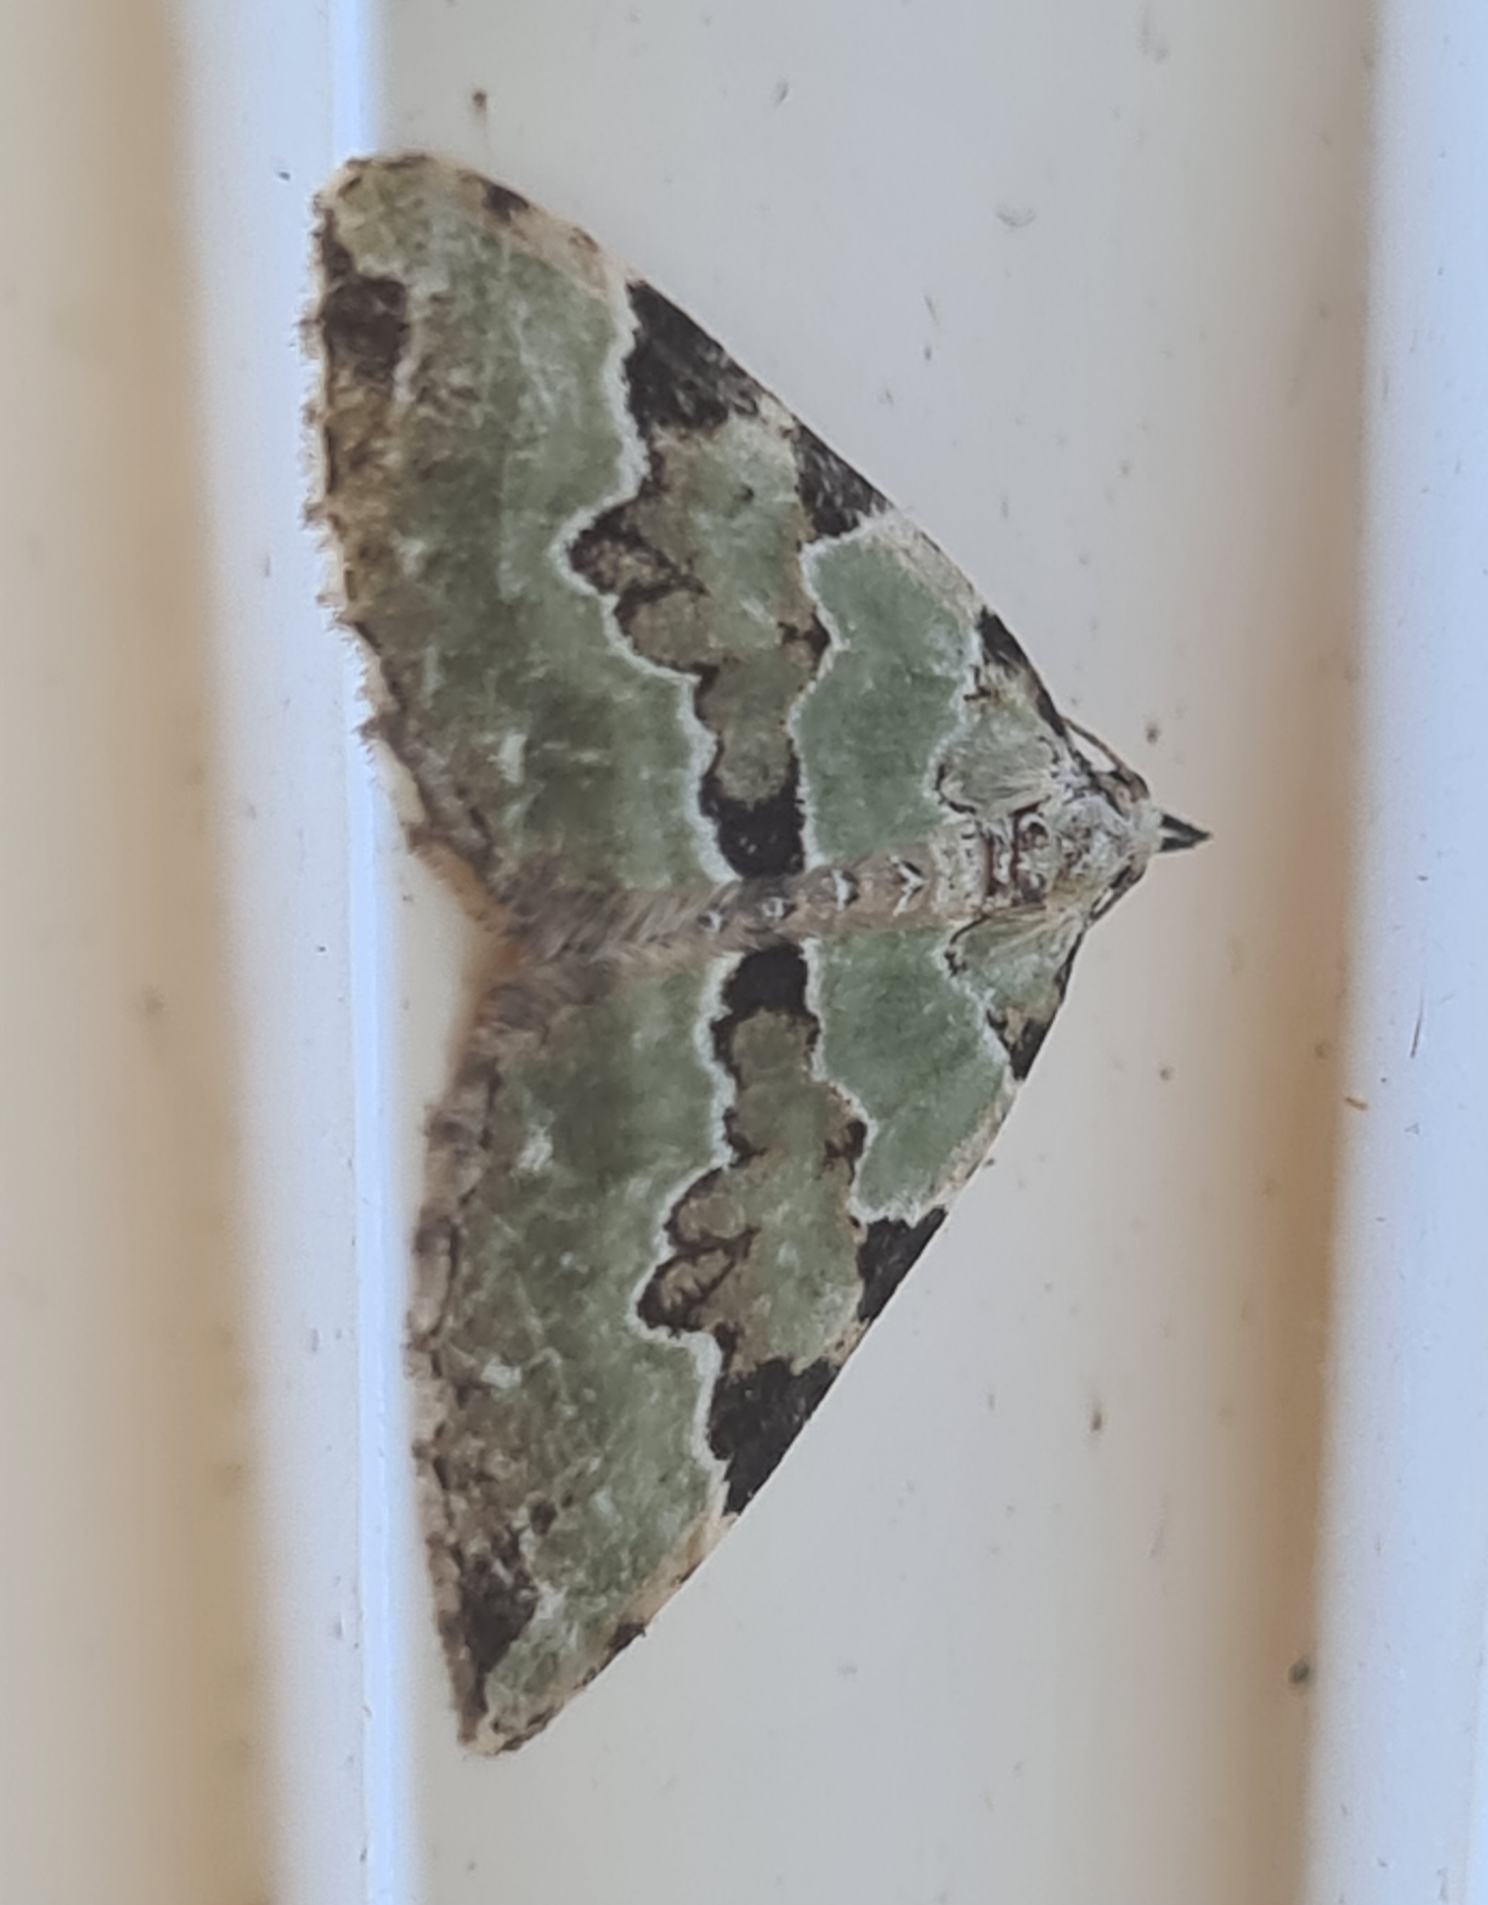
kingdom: Animalia
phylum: Arthropoda
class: Insecta
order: Lepidoptera
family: Geometridae
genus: Colostygia
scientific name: Colostygia pectinataria
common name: Grøn bladmåler
